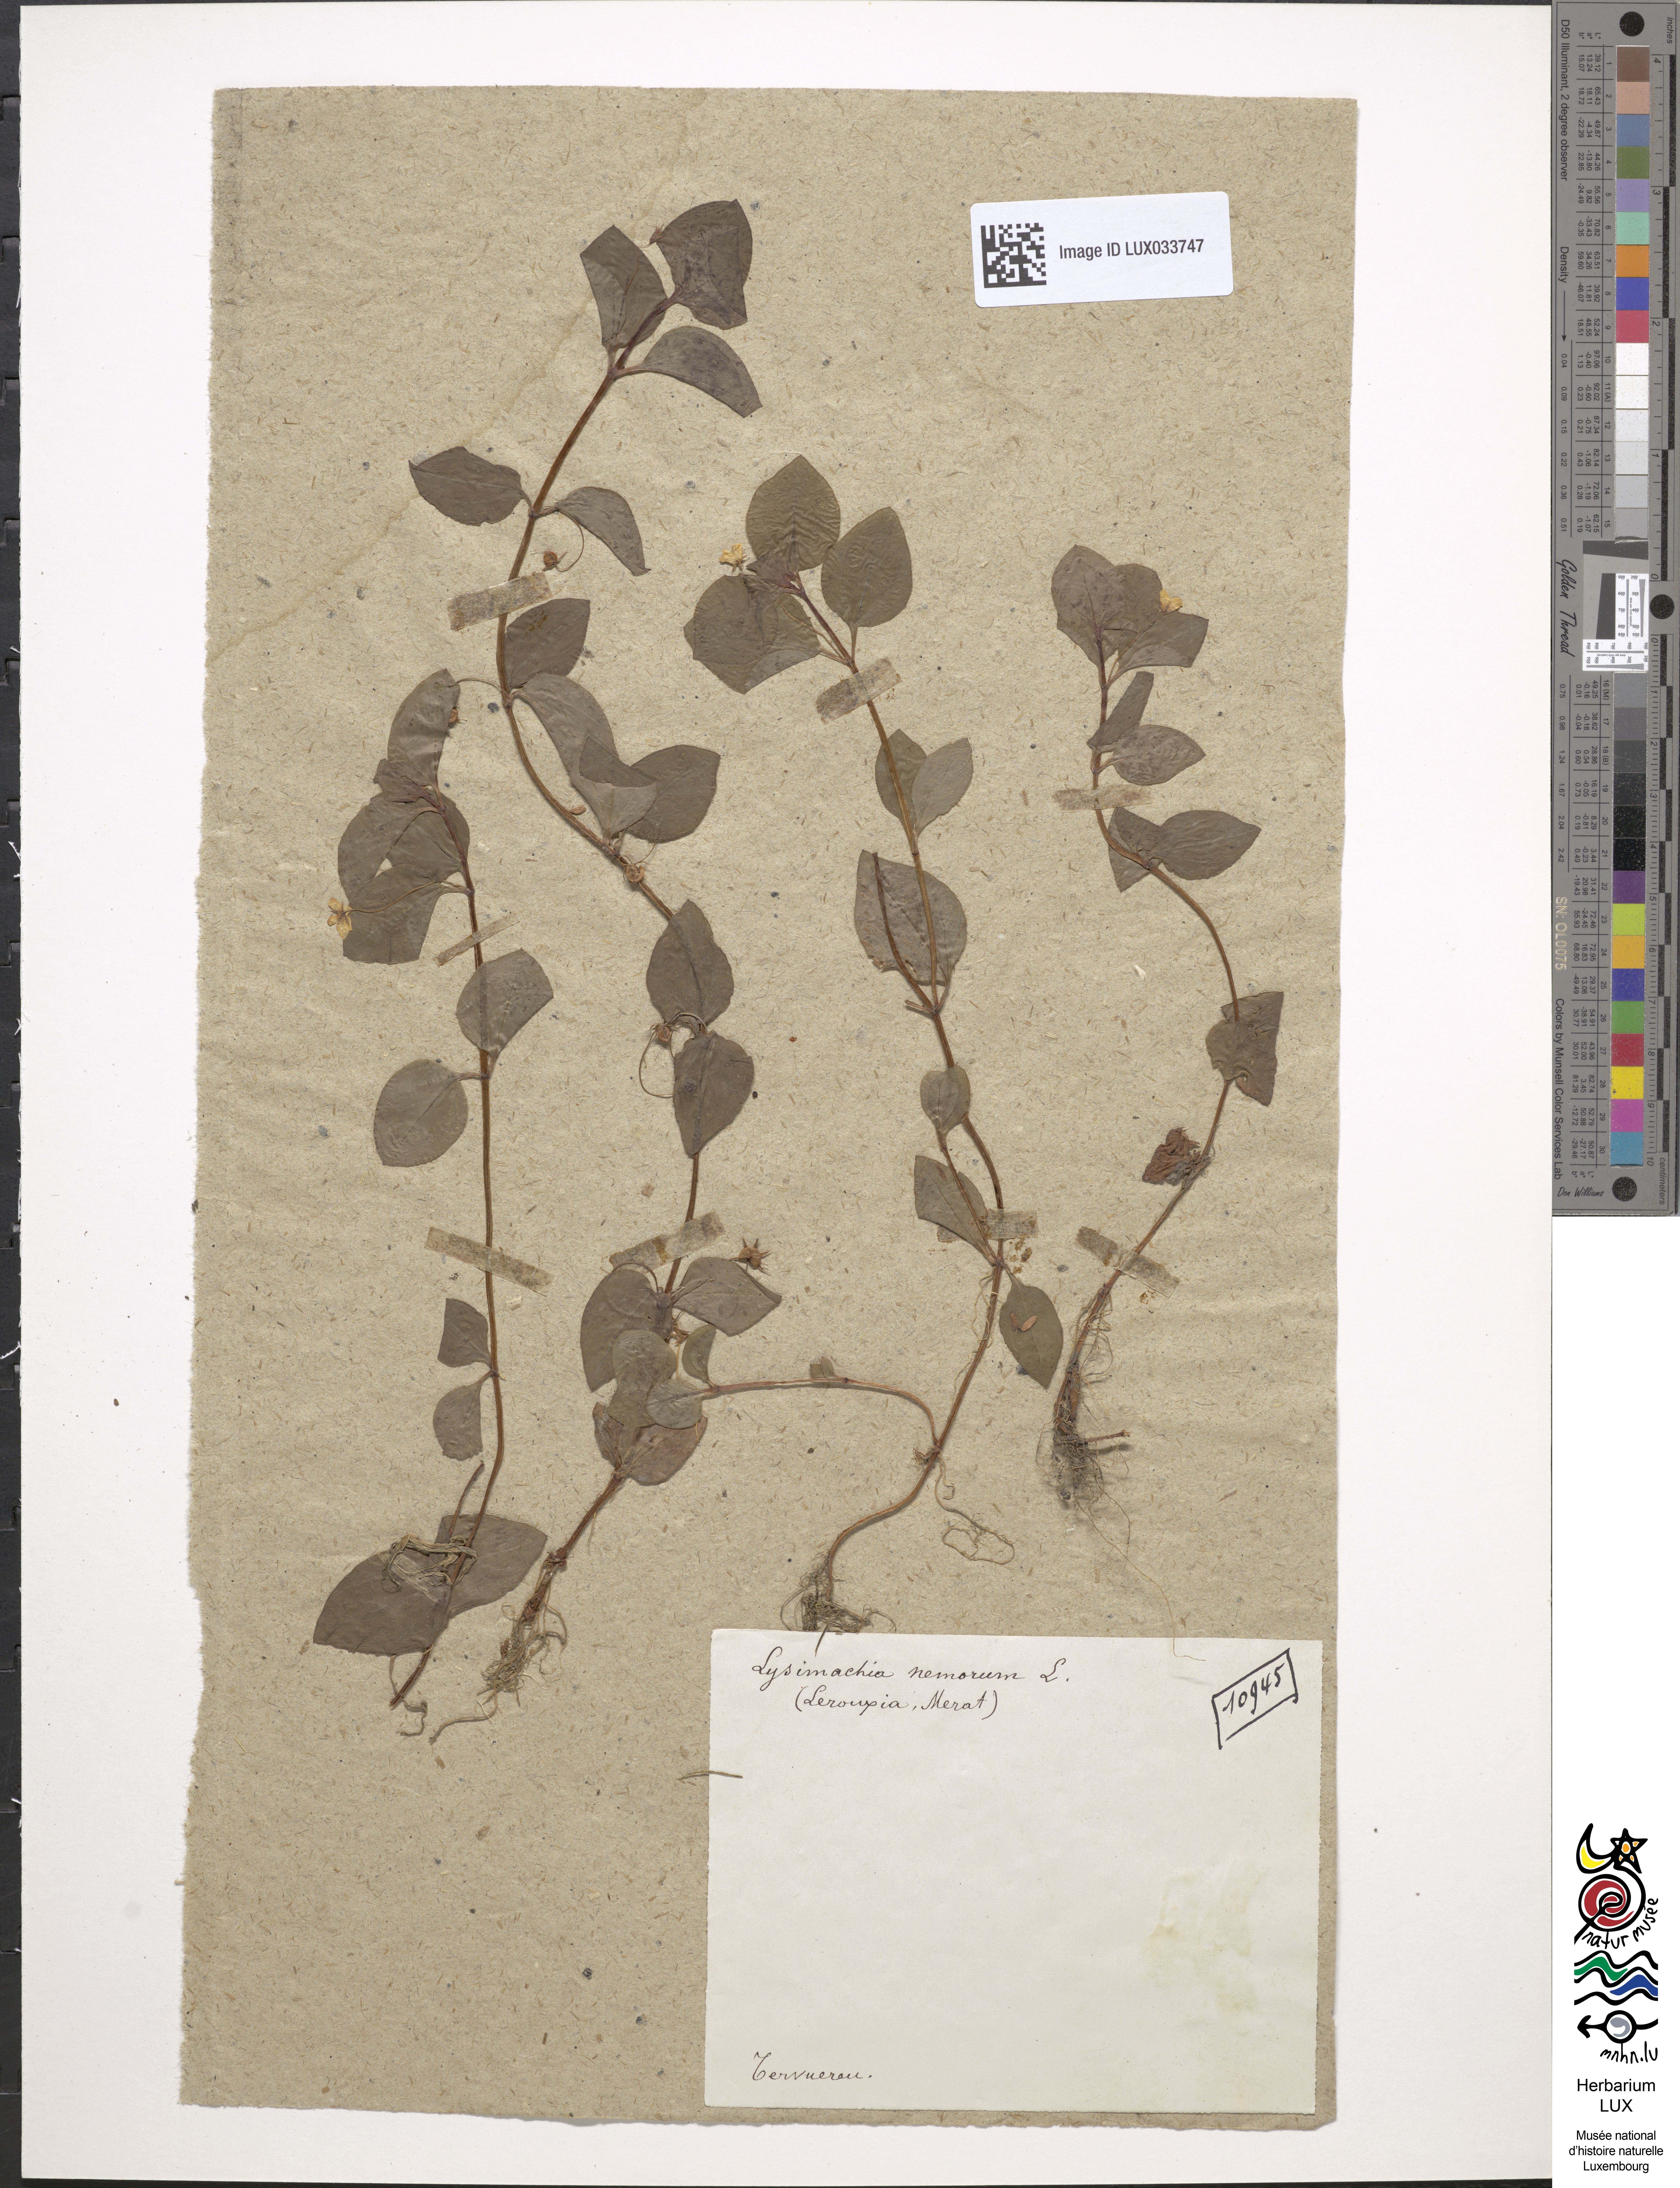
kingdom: Plantae
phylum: Tracheophyta
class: Magnoliopsida
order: Ericales
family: Primulaceae
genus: Lysimachia
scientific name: Lysimachia nemorum
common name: Yellow pimpernel
